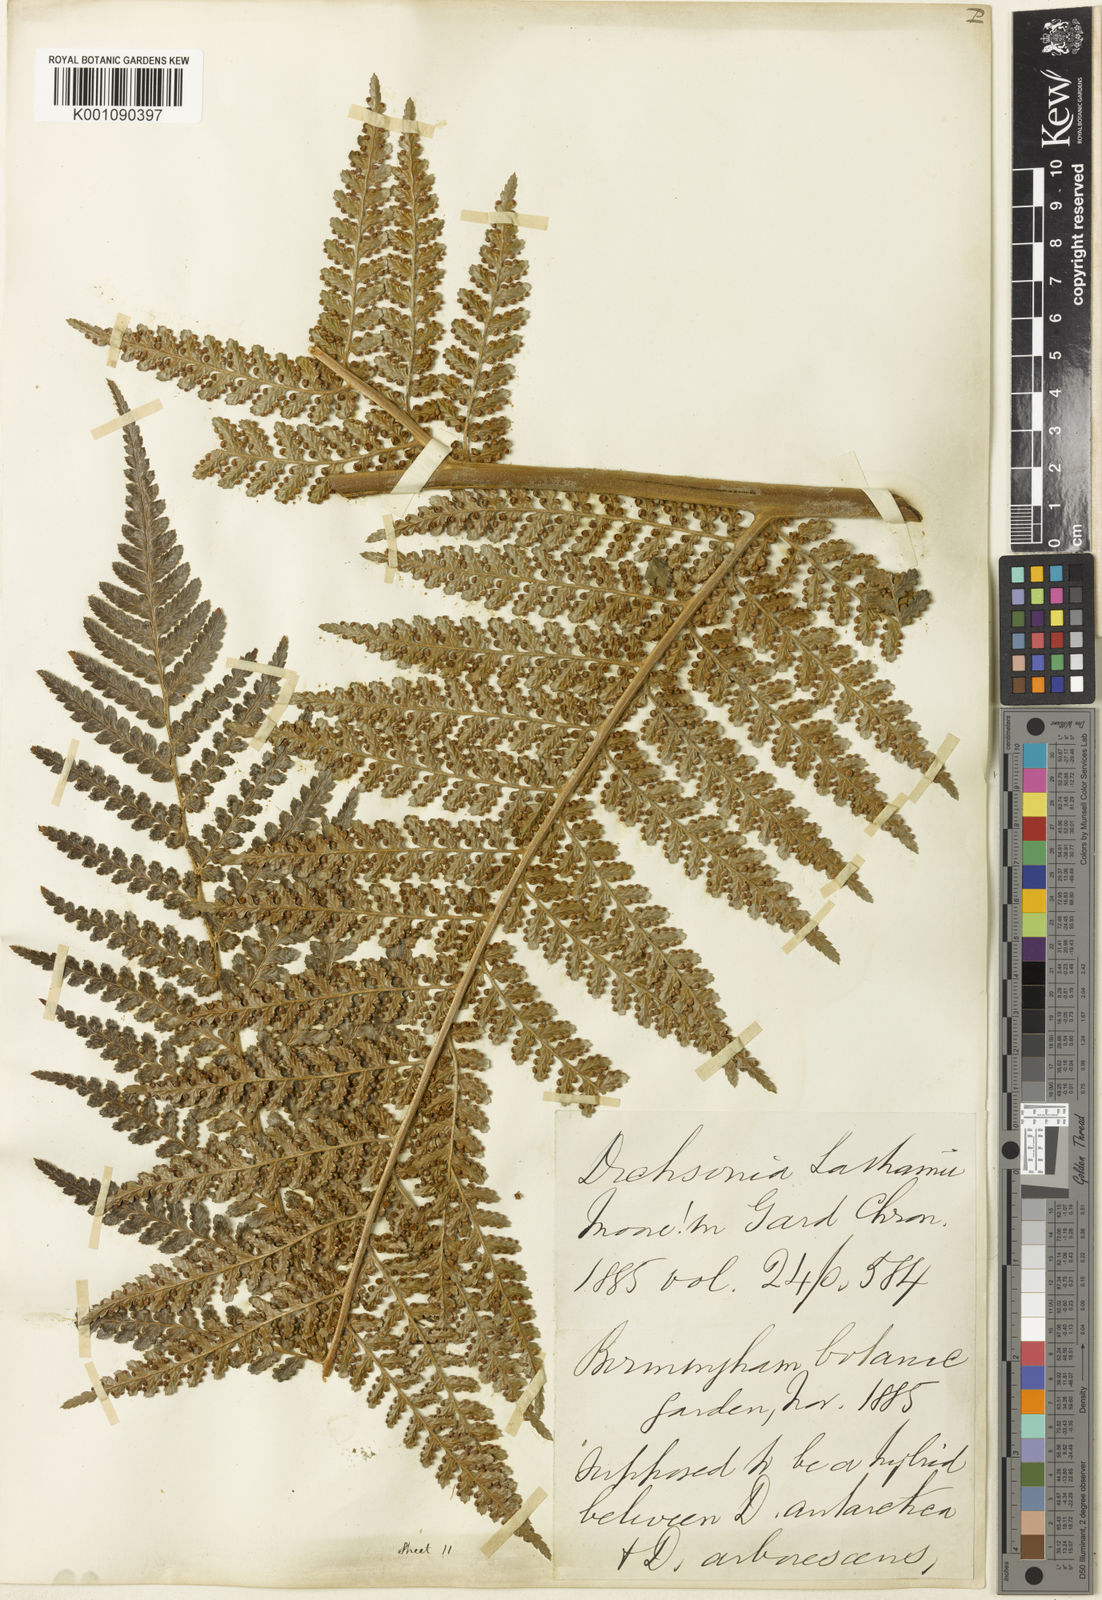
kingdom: Plantae
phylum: Tracheophyta
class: Polypodiopsida
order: Cyatheales
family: Dicksoniaceae
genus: Dicksonia
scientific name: Dicksonia lathamii
